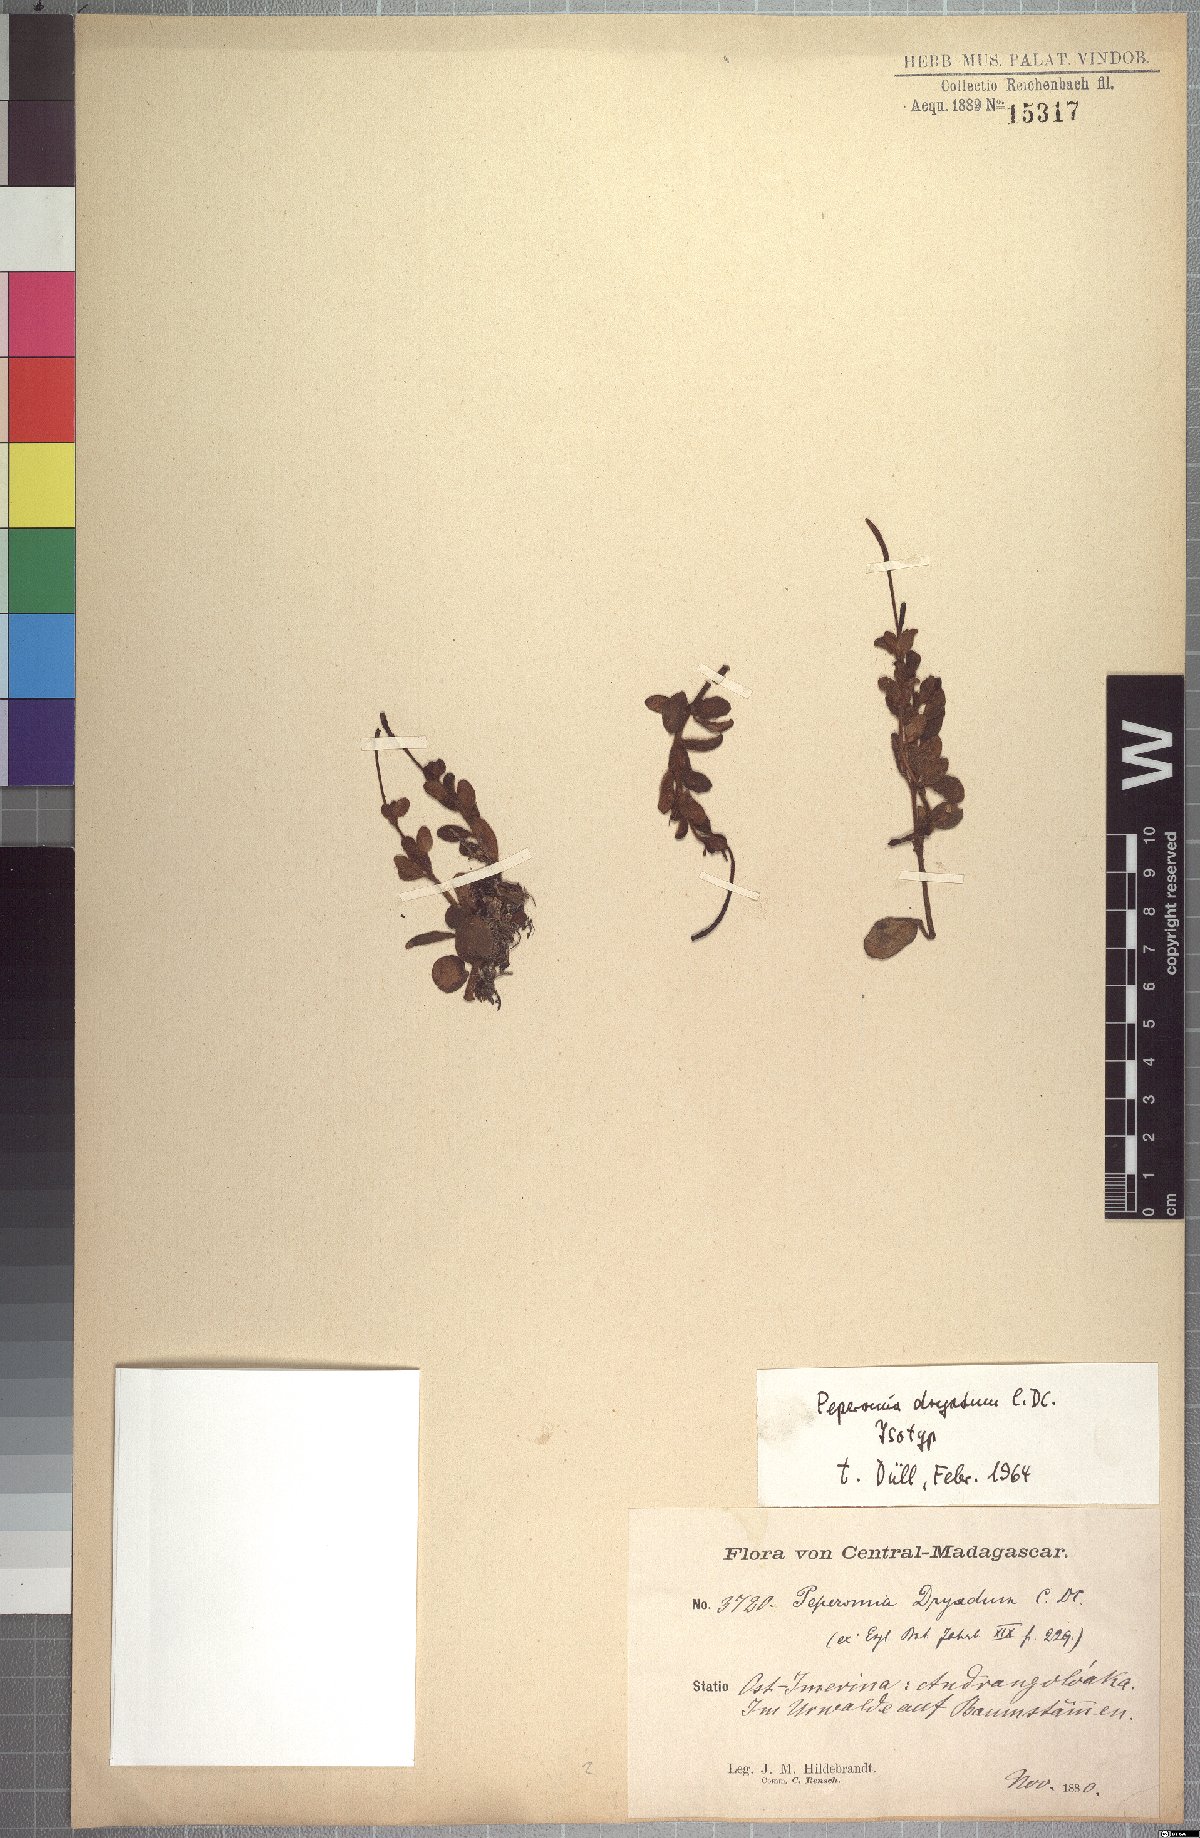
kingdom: Plantae
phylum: Tracheophyta
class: Magnoliopsida
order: Piperales
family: Piperaceae
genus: Peperomia
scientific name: Peperomia dryadum
